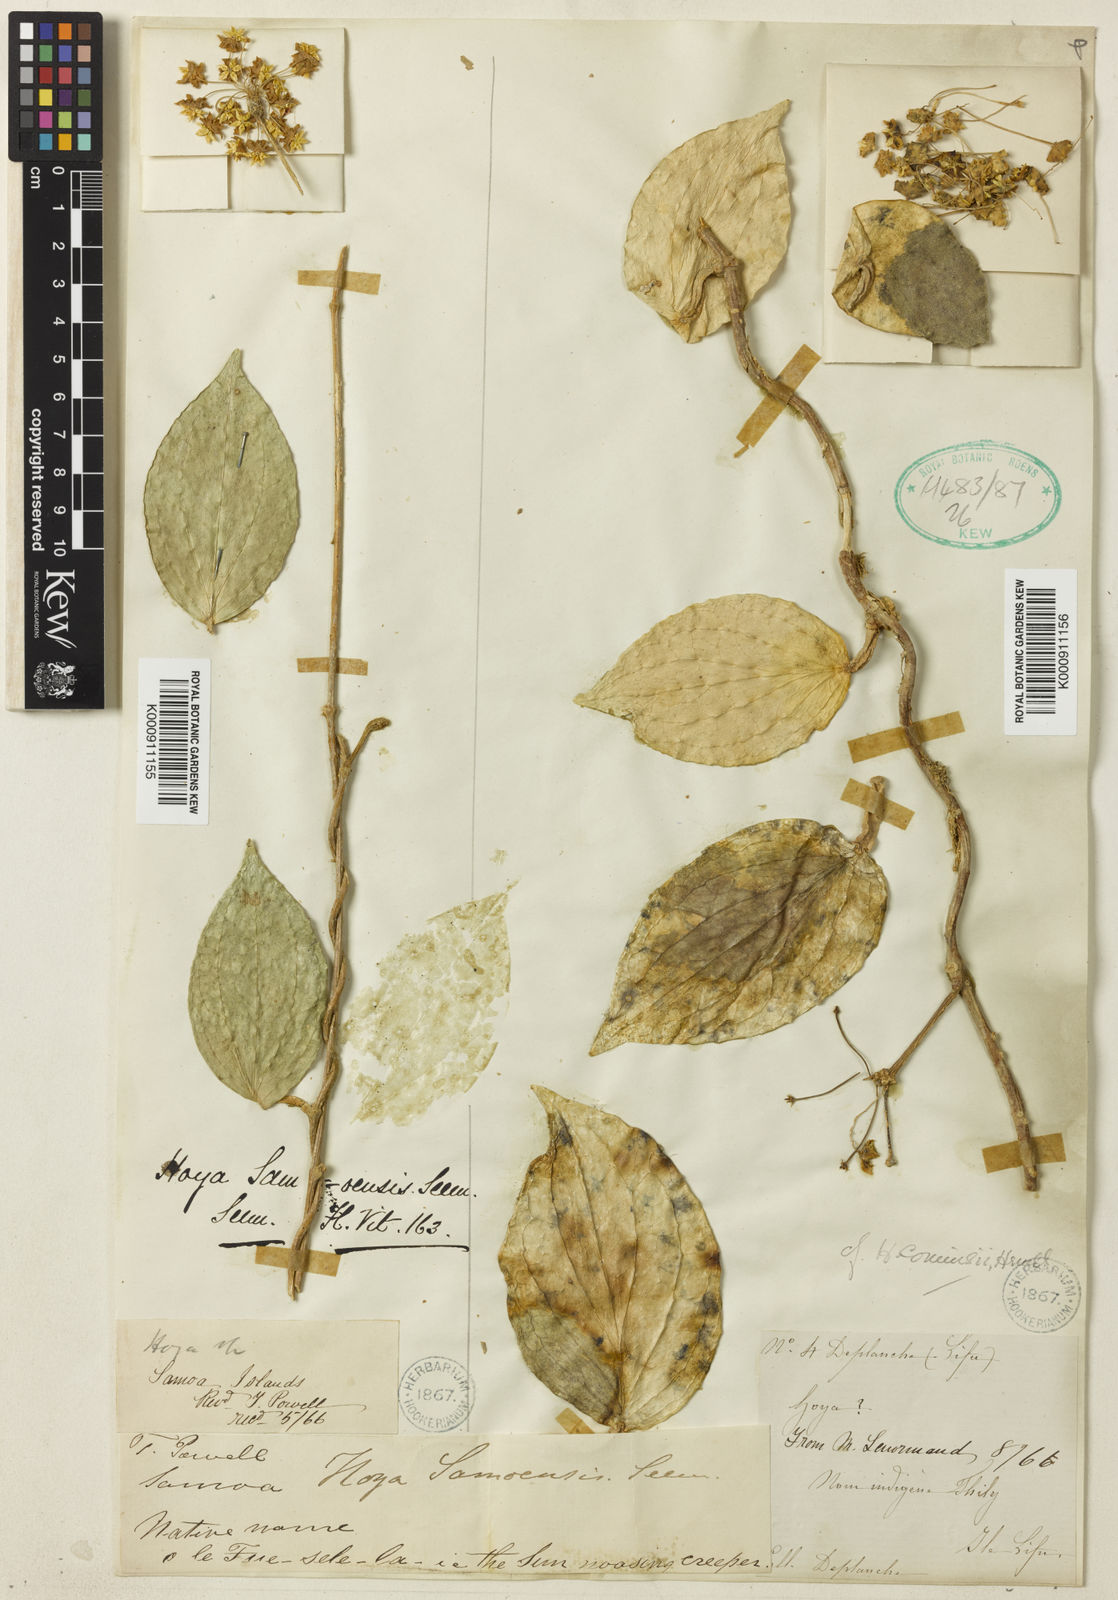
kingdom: Plantae
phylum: Tracheophyta
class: Magnoliopsida
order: Gentianales
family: Apocynaceae
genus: Hoya
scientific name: Hoya nicholsoniae
